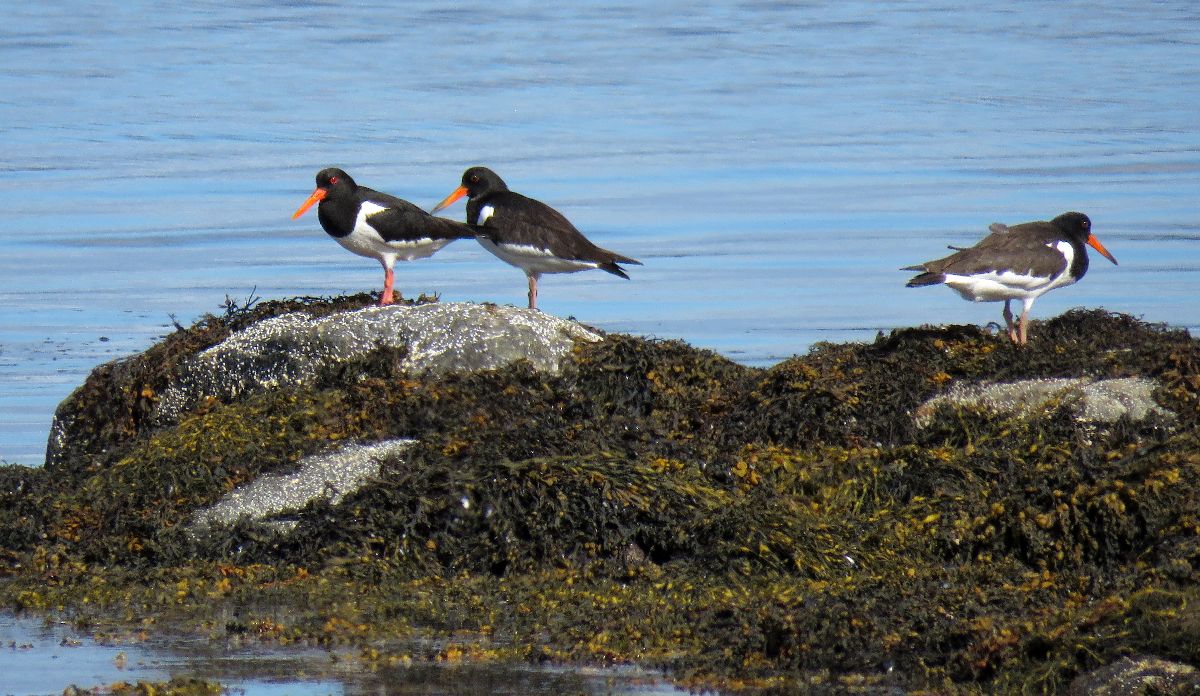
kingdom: Animalia
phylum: Chordata
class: Aves
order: Charadriiformes
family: Haematopodidae
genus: Haematopus
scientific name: Haematopus ostralegus
